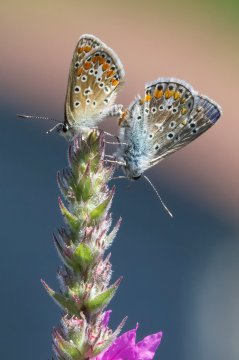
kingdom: Animalia
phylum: Arthropoda
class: Insecta
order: Lepidoptera
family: Lycaenidae
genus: Polyommatus
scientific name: Polyommatus icarus
